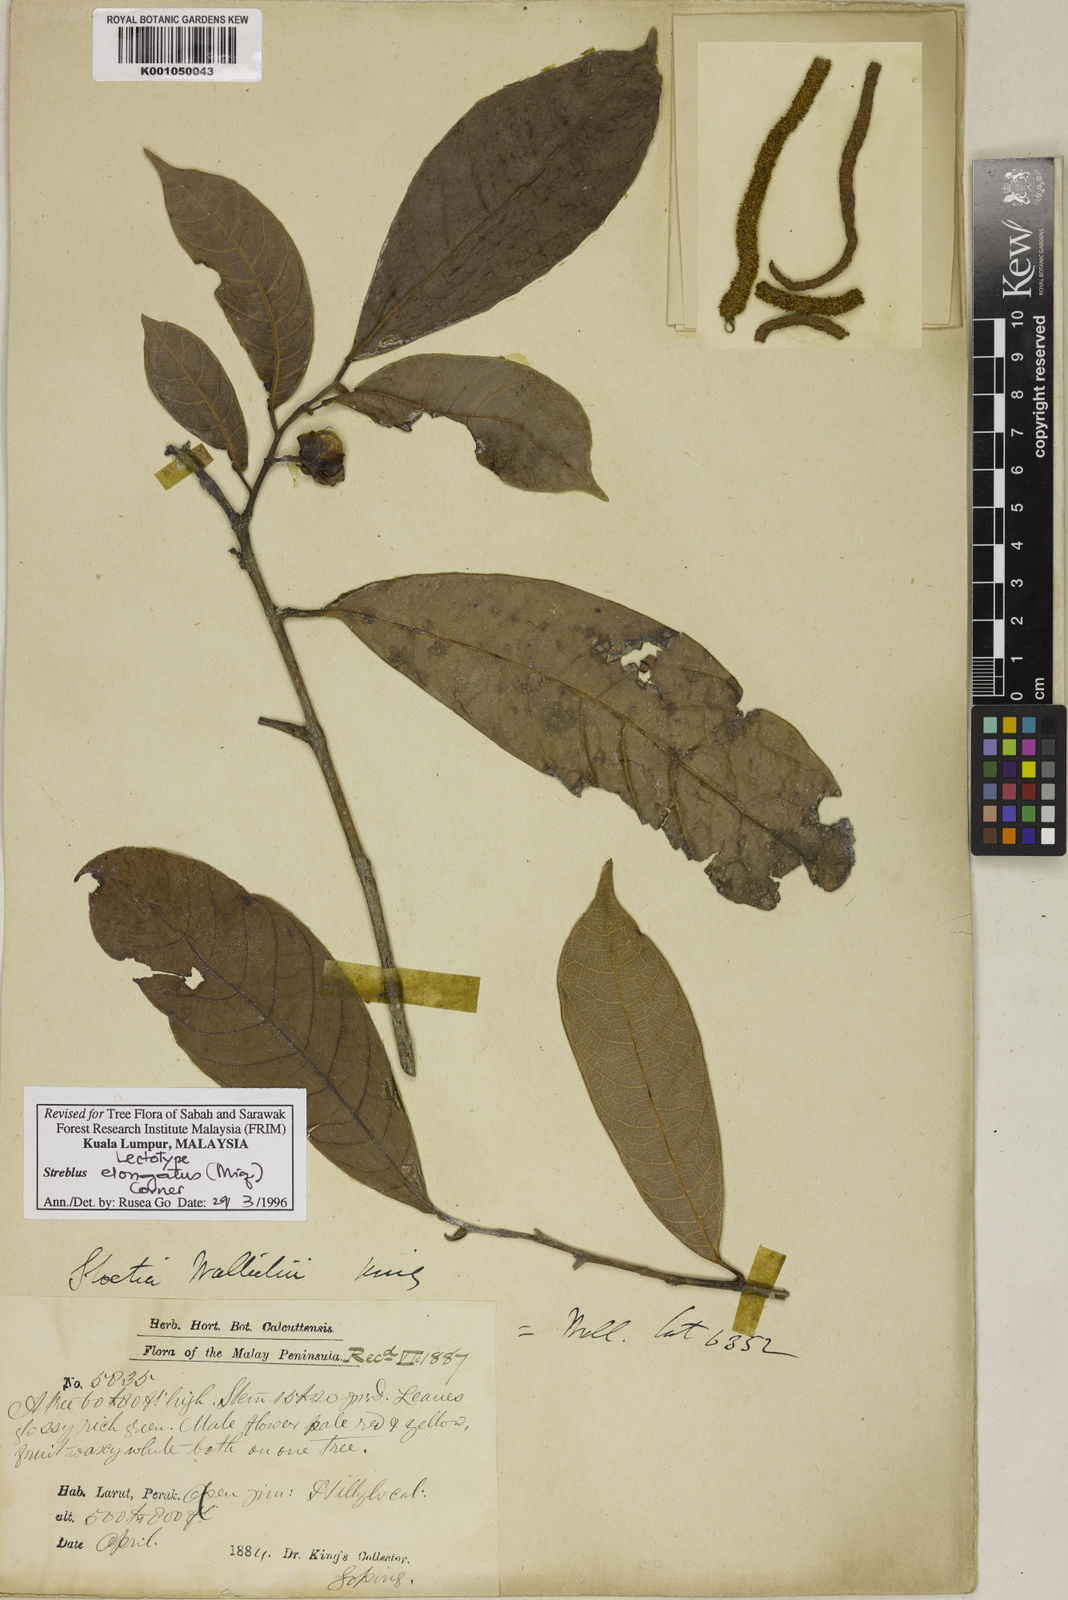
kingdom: Plantae
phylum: Tracheophyta
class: Magnoliopsida
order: Rosales
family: Moraceae
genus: Sloetia
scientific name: Sloetia elongata
